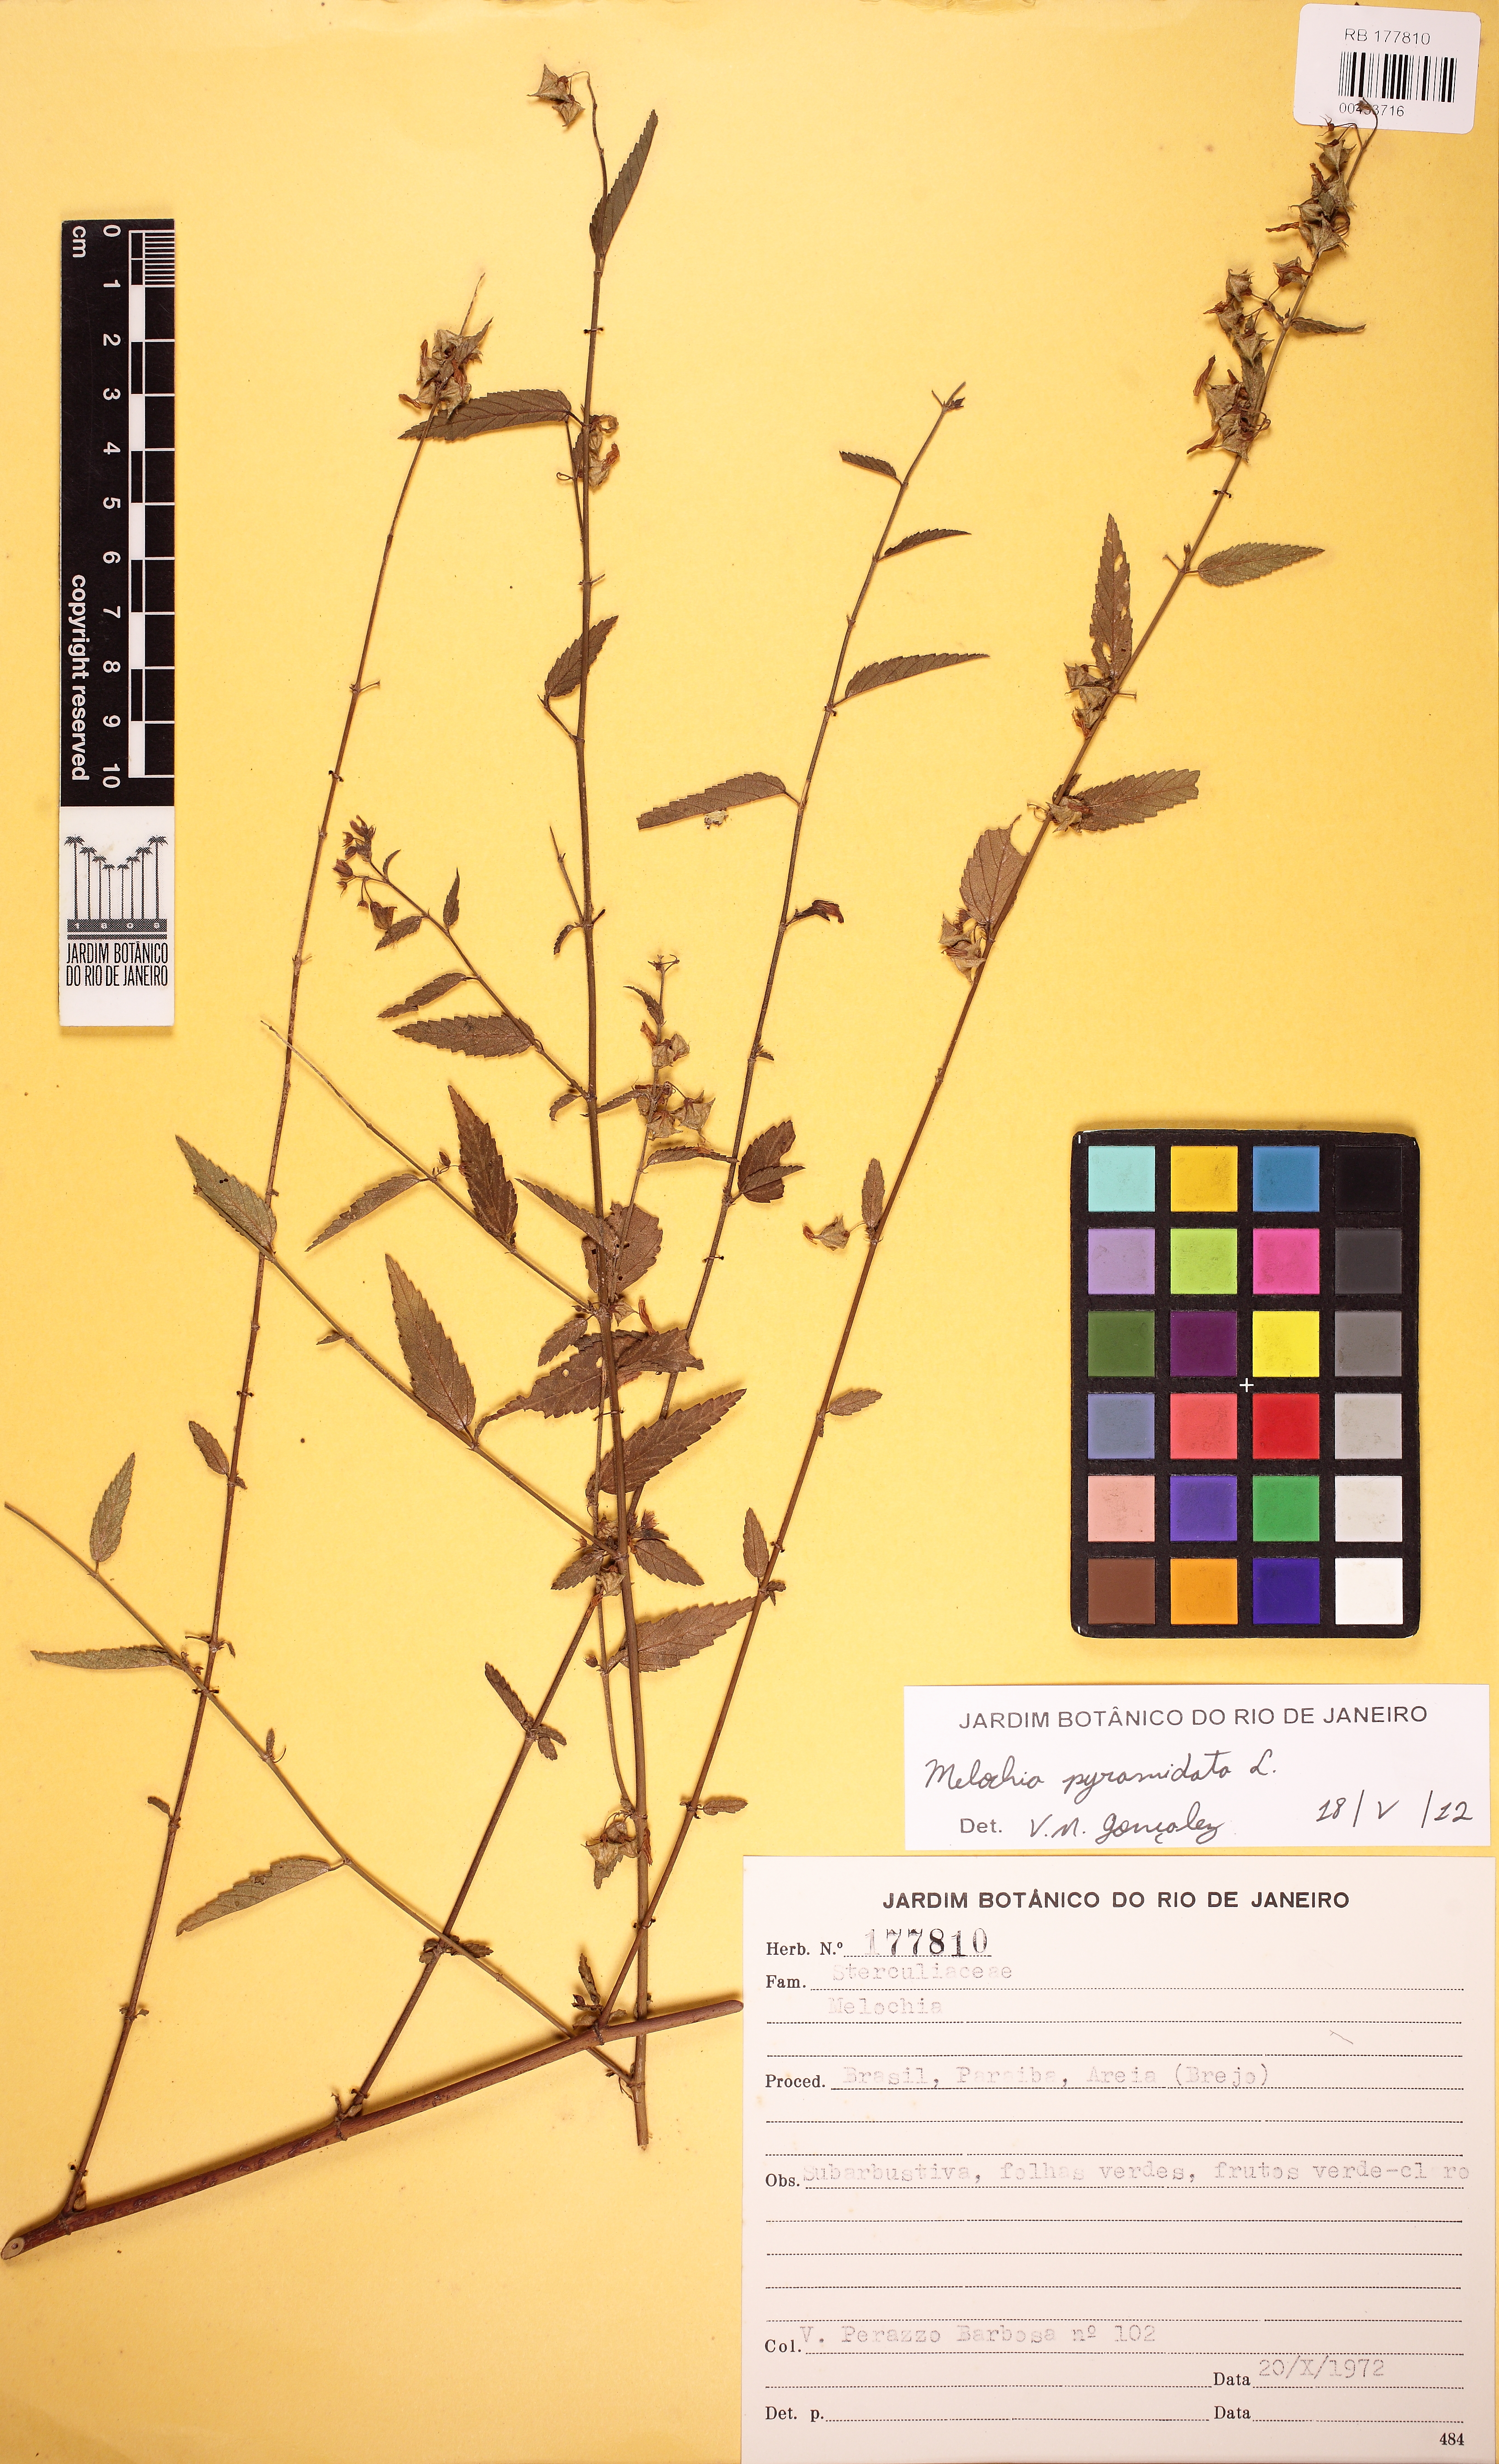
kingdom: Plantae
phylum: Tracheophyta
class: Magnoliopsida
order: Malvales
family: Malvaceae
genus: Melochia
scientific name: Melochia pyramidata
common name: Pyramidflower
